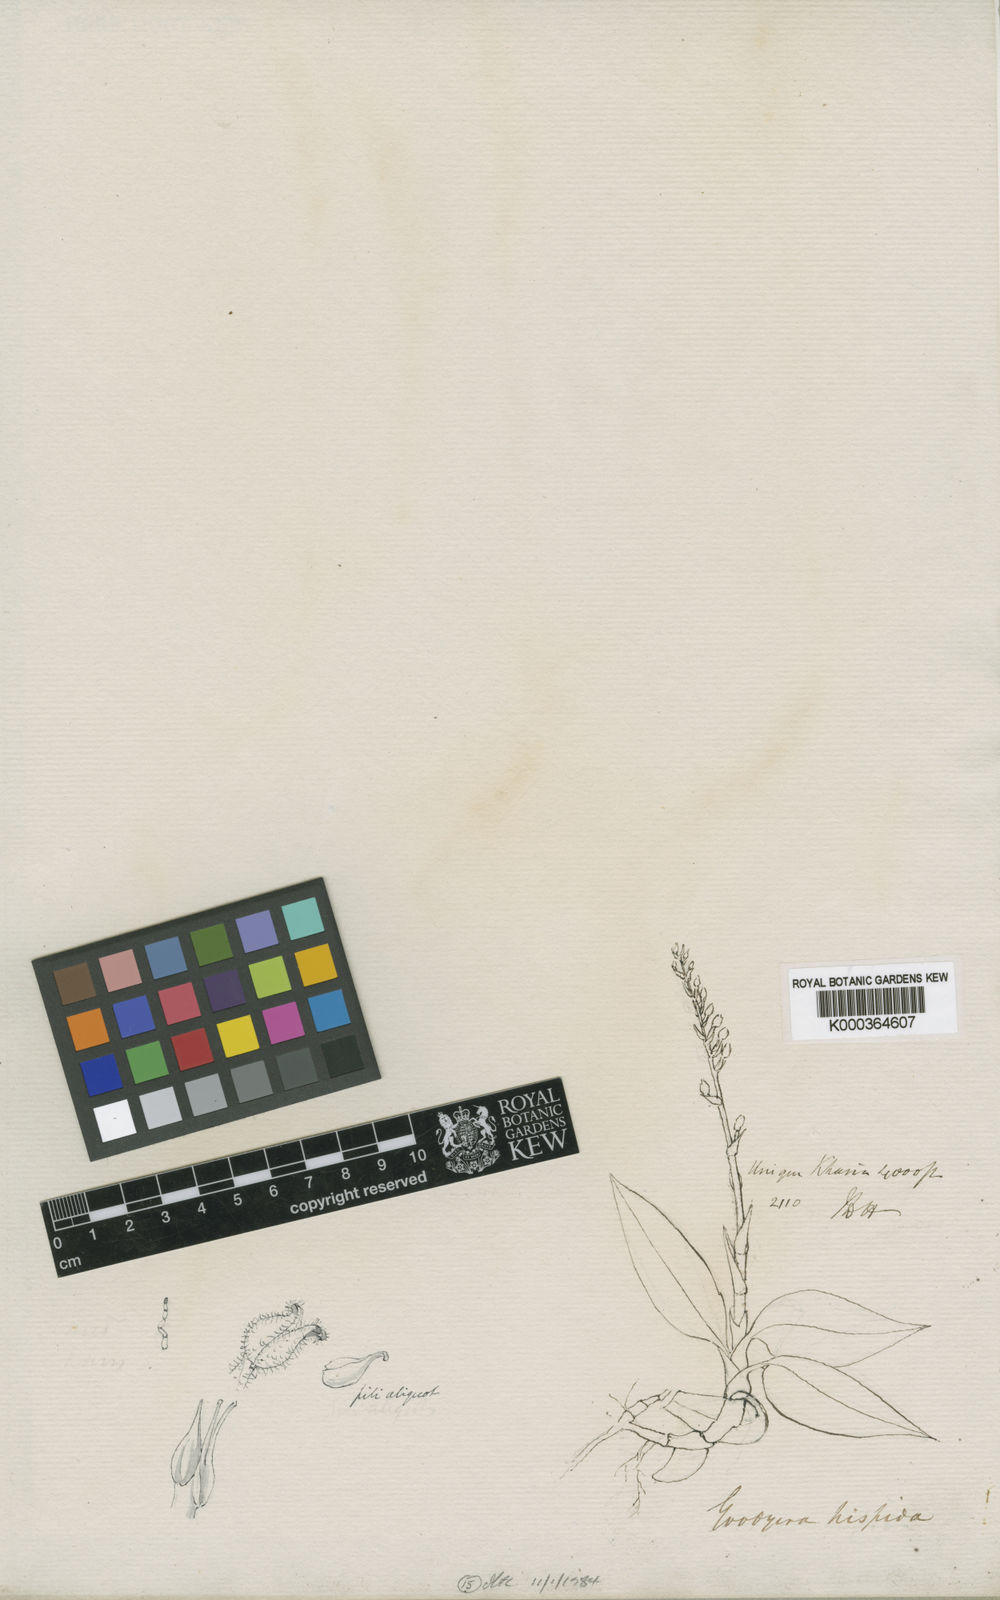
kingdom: Plantae
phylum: Tracheophyta
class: Liliopsida
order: Asparagales
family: Orchidaceae
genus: Goodyera
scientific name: Goodyera hispida
